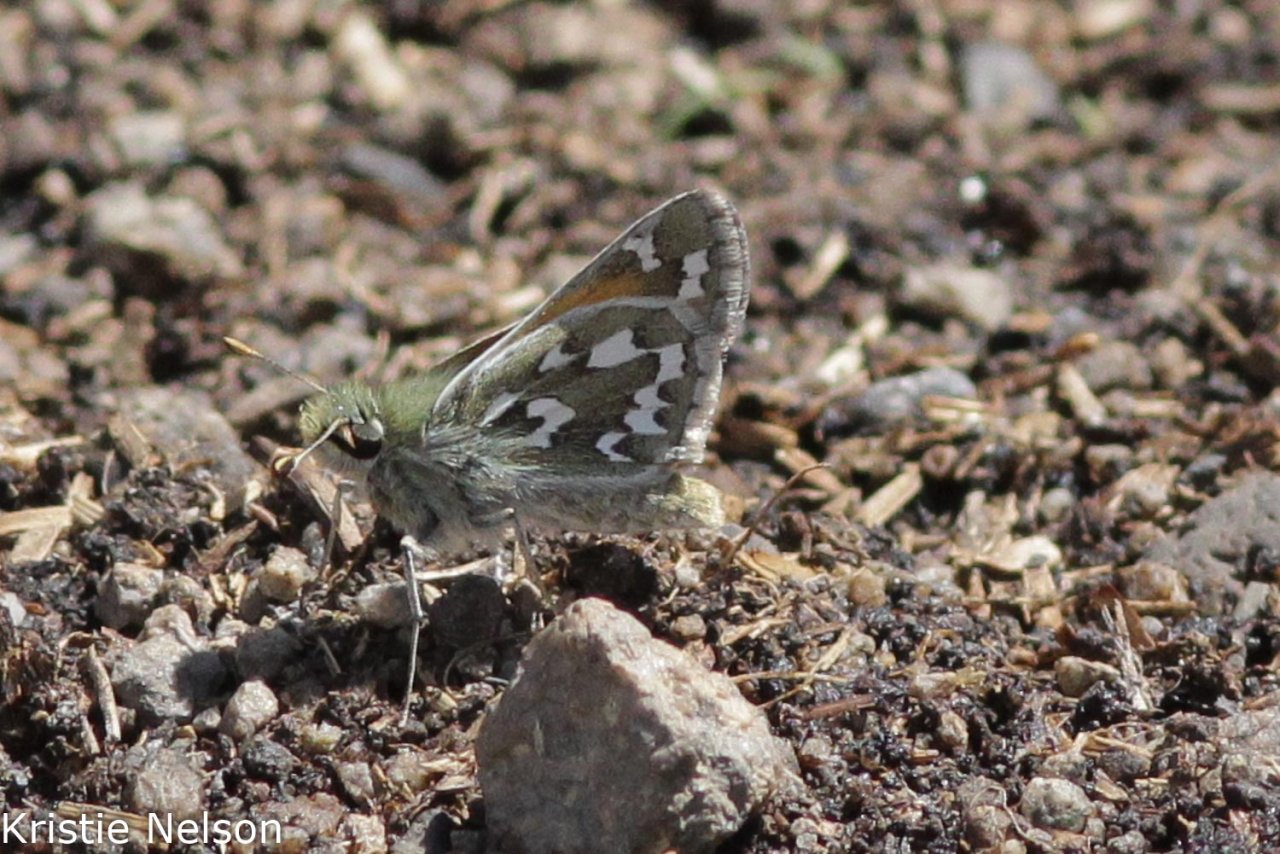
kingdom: Animalia
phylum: Arthropoda
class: Insecta
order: Lepidoptera
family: Hesperiidae
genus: Hesperia
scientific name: Hesperia nevada
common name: Nevada Skipper
